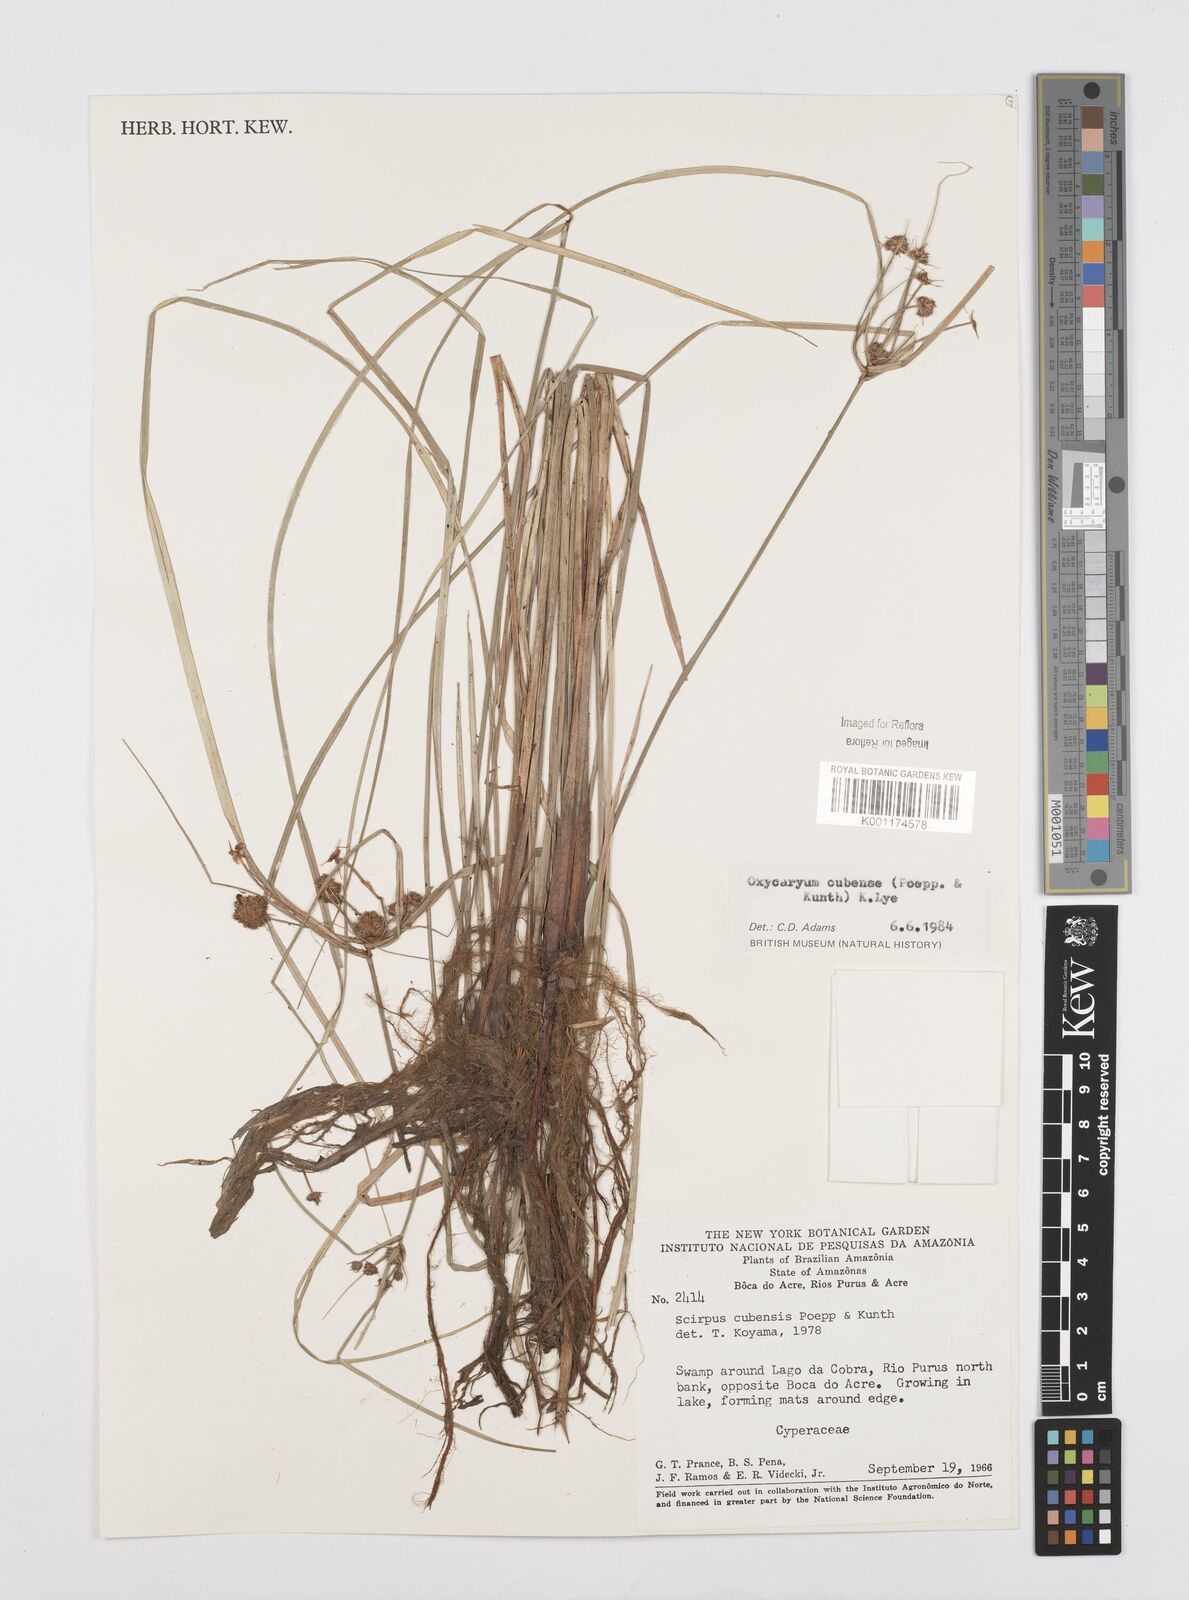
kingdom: Plantae
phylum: Tracheophyta
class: Liliopsida
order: Poales
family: Cyperaceae
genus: Cyperus
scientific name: Cyperus elegans
